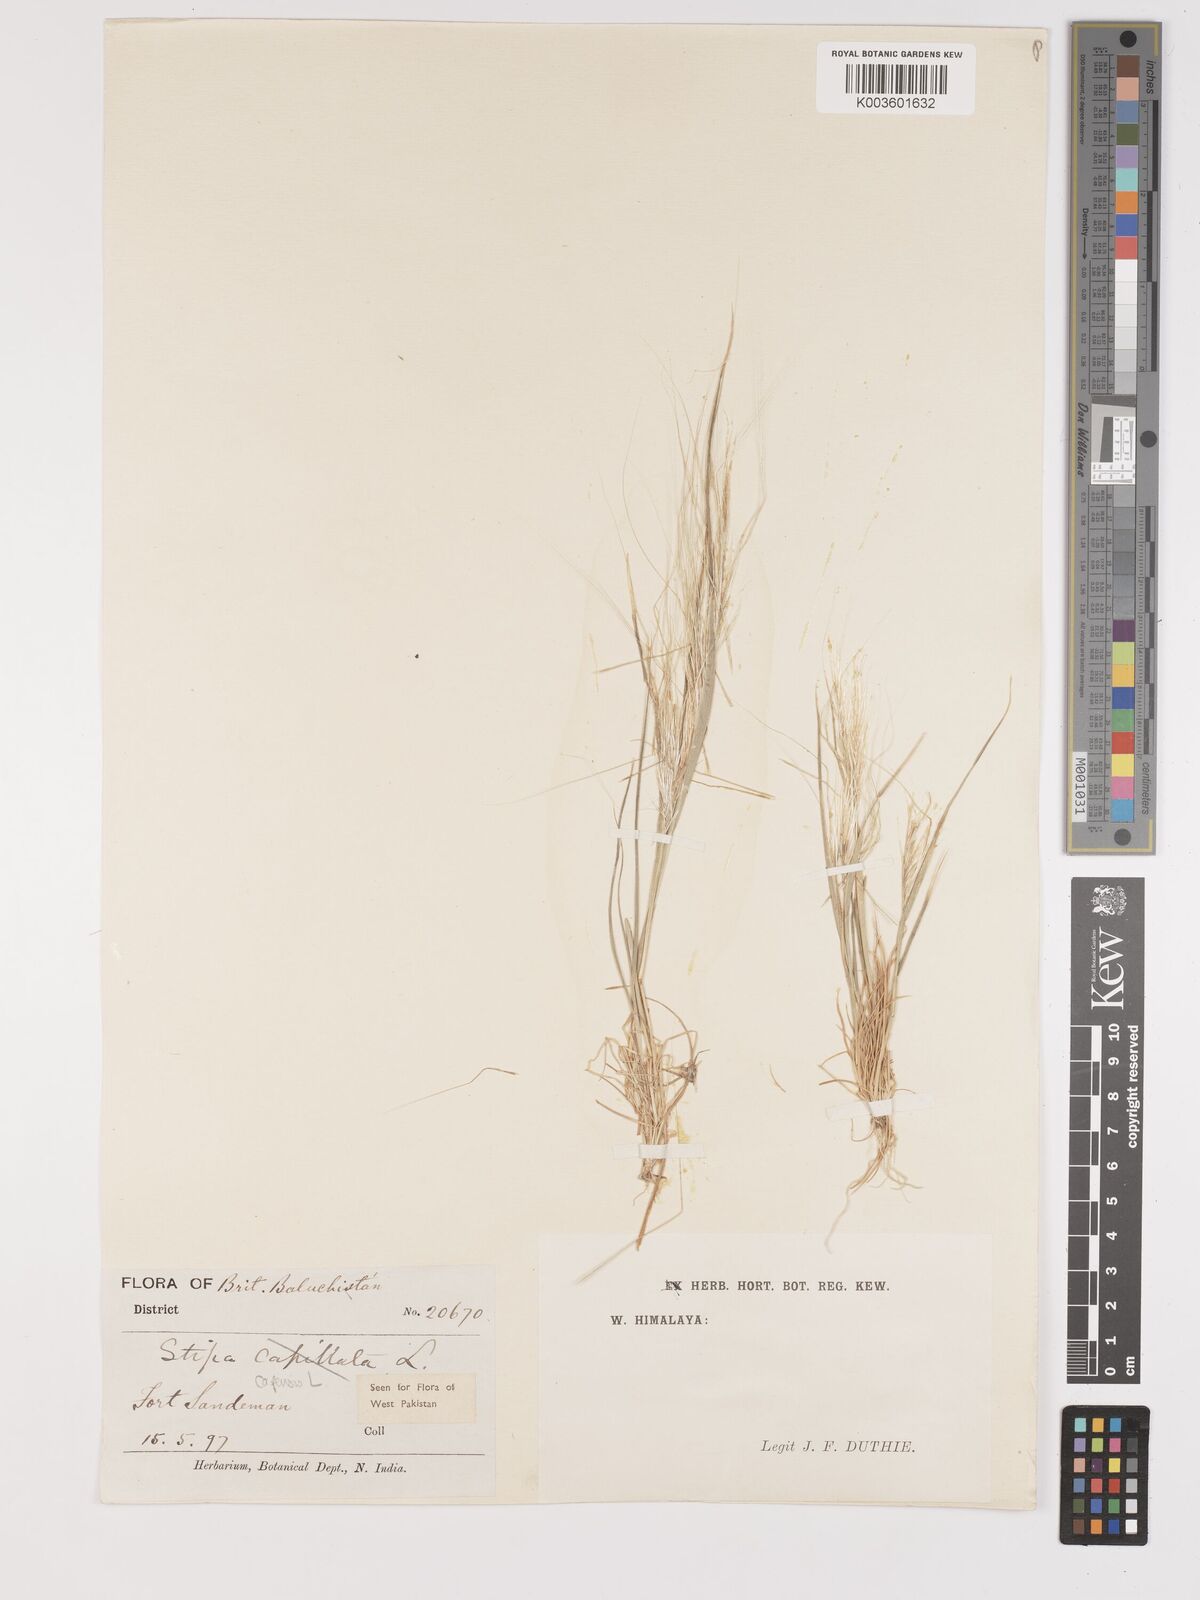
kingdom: Plantae
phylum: Tracheophyta
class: Liliopsida
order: Poales
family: Poaceae
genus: Stipellula
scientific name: Stipellula capensis
